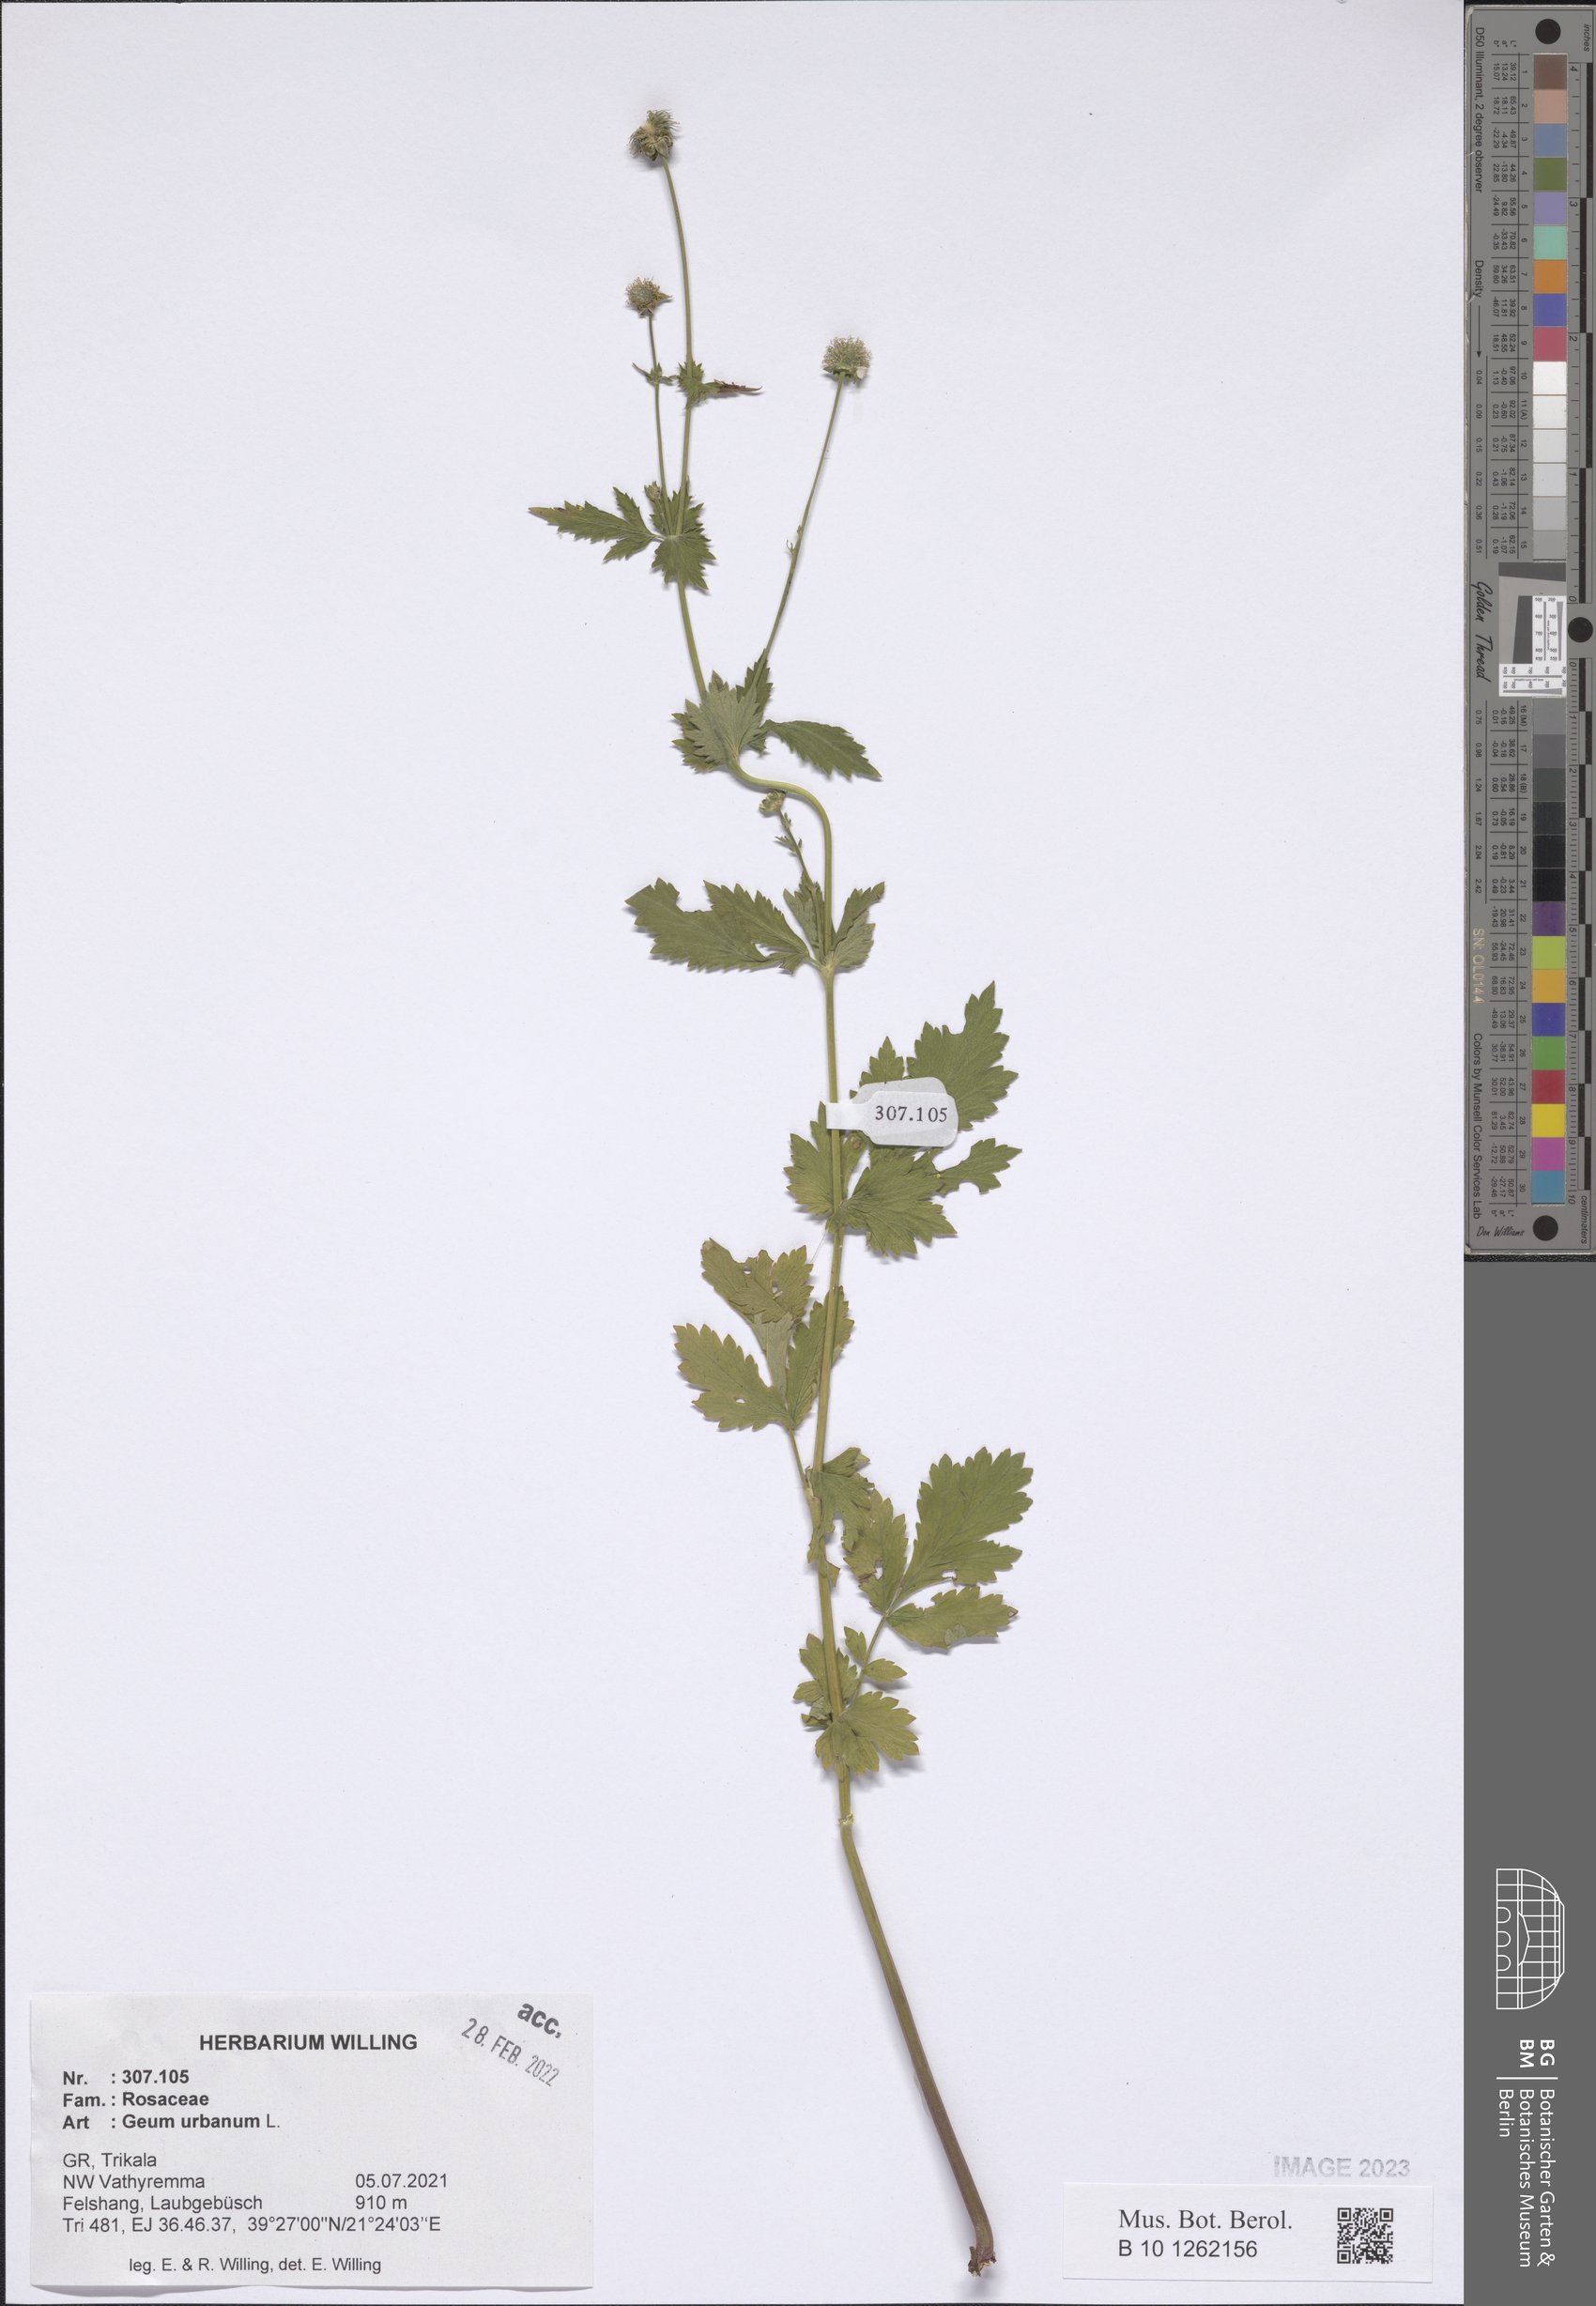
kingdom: Plantae
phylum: Tracheophyta
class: Magnoliopsida
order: Rosales
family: Rosaceae
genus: Geum
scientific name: Geum urbanum
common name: Wood avens
